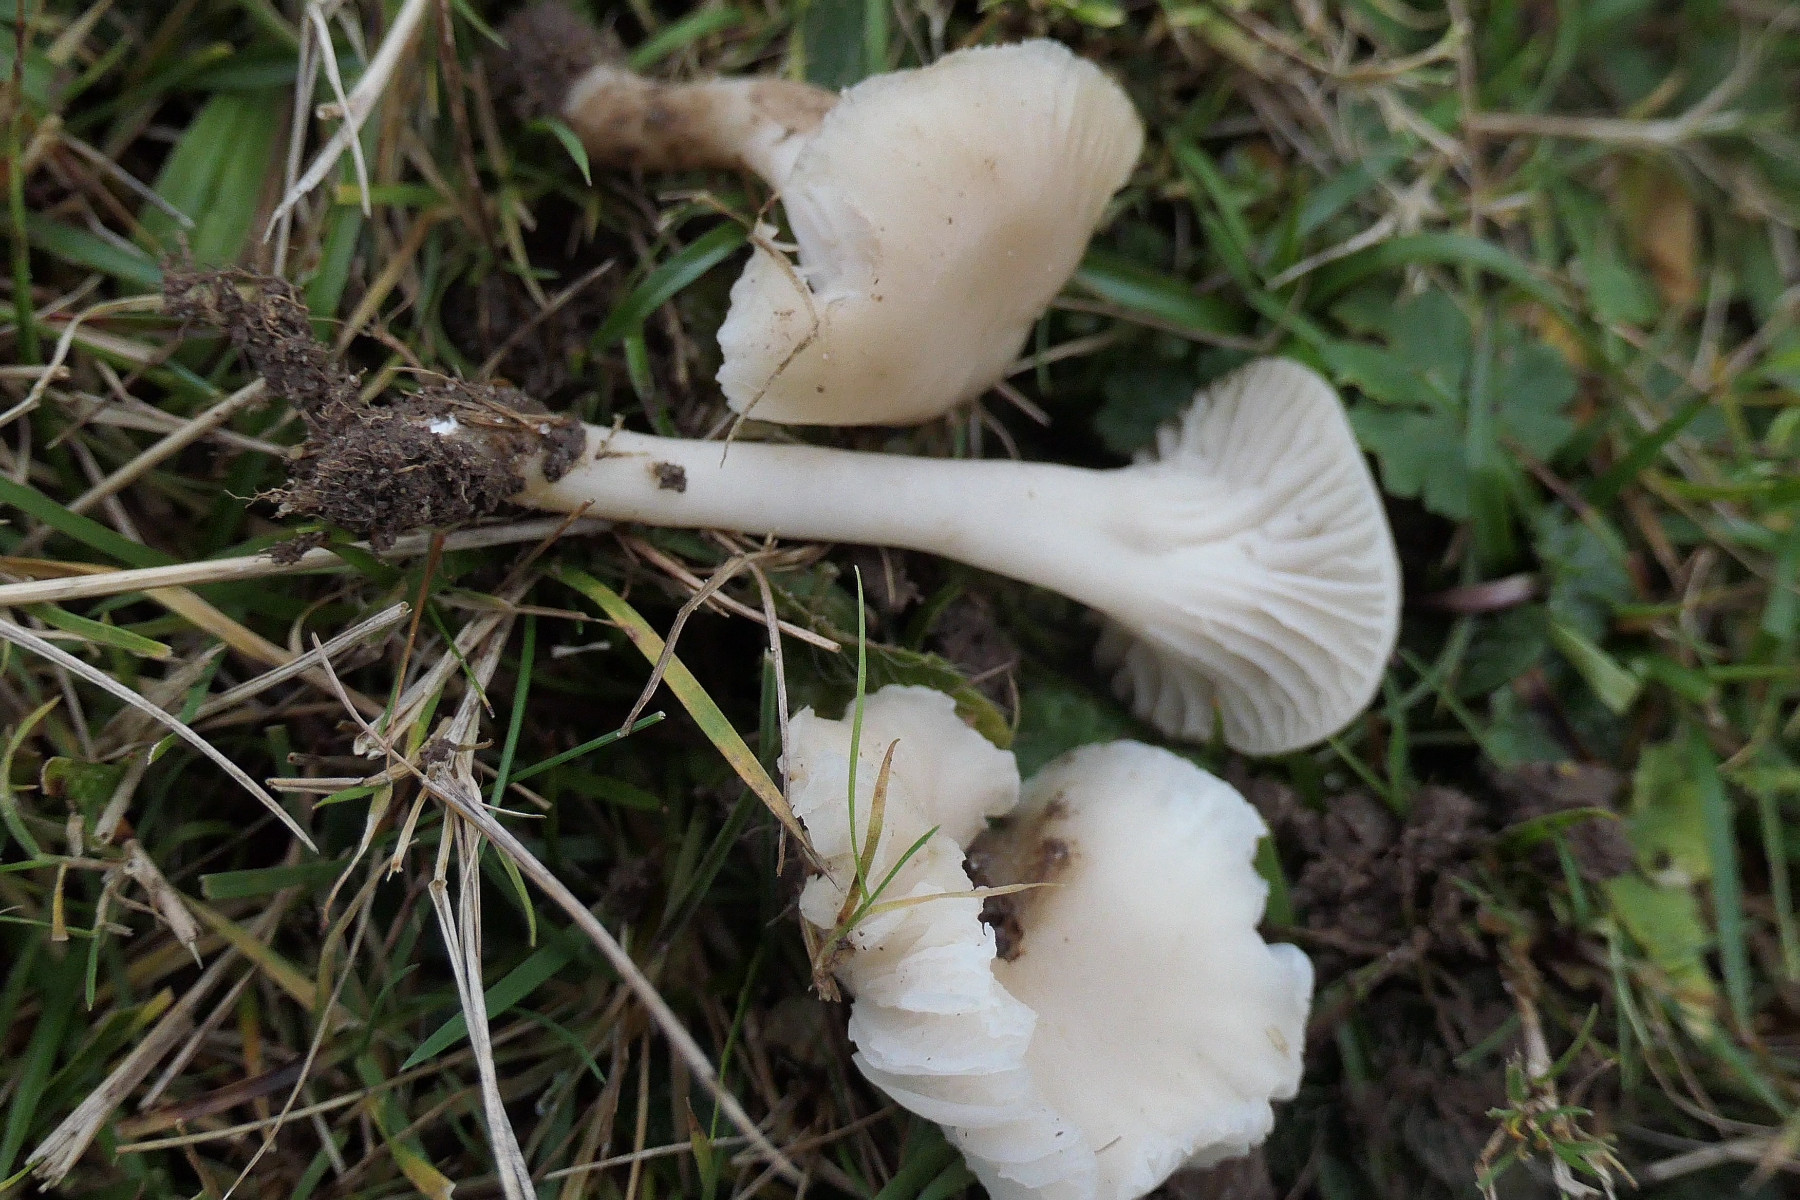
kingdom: Fungi
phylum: Basidiomycota
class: Agaricomycetes
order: Agaricales
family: Hygrophoraceae
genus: Cuphophyllus
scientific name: Cuphophyllus virgineus
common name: snehvid vokshat
